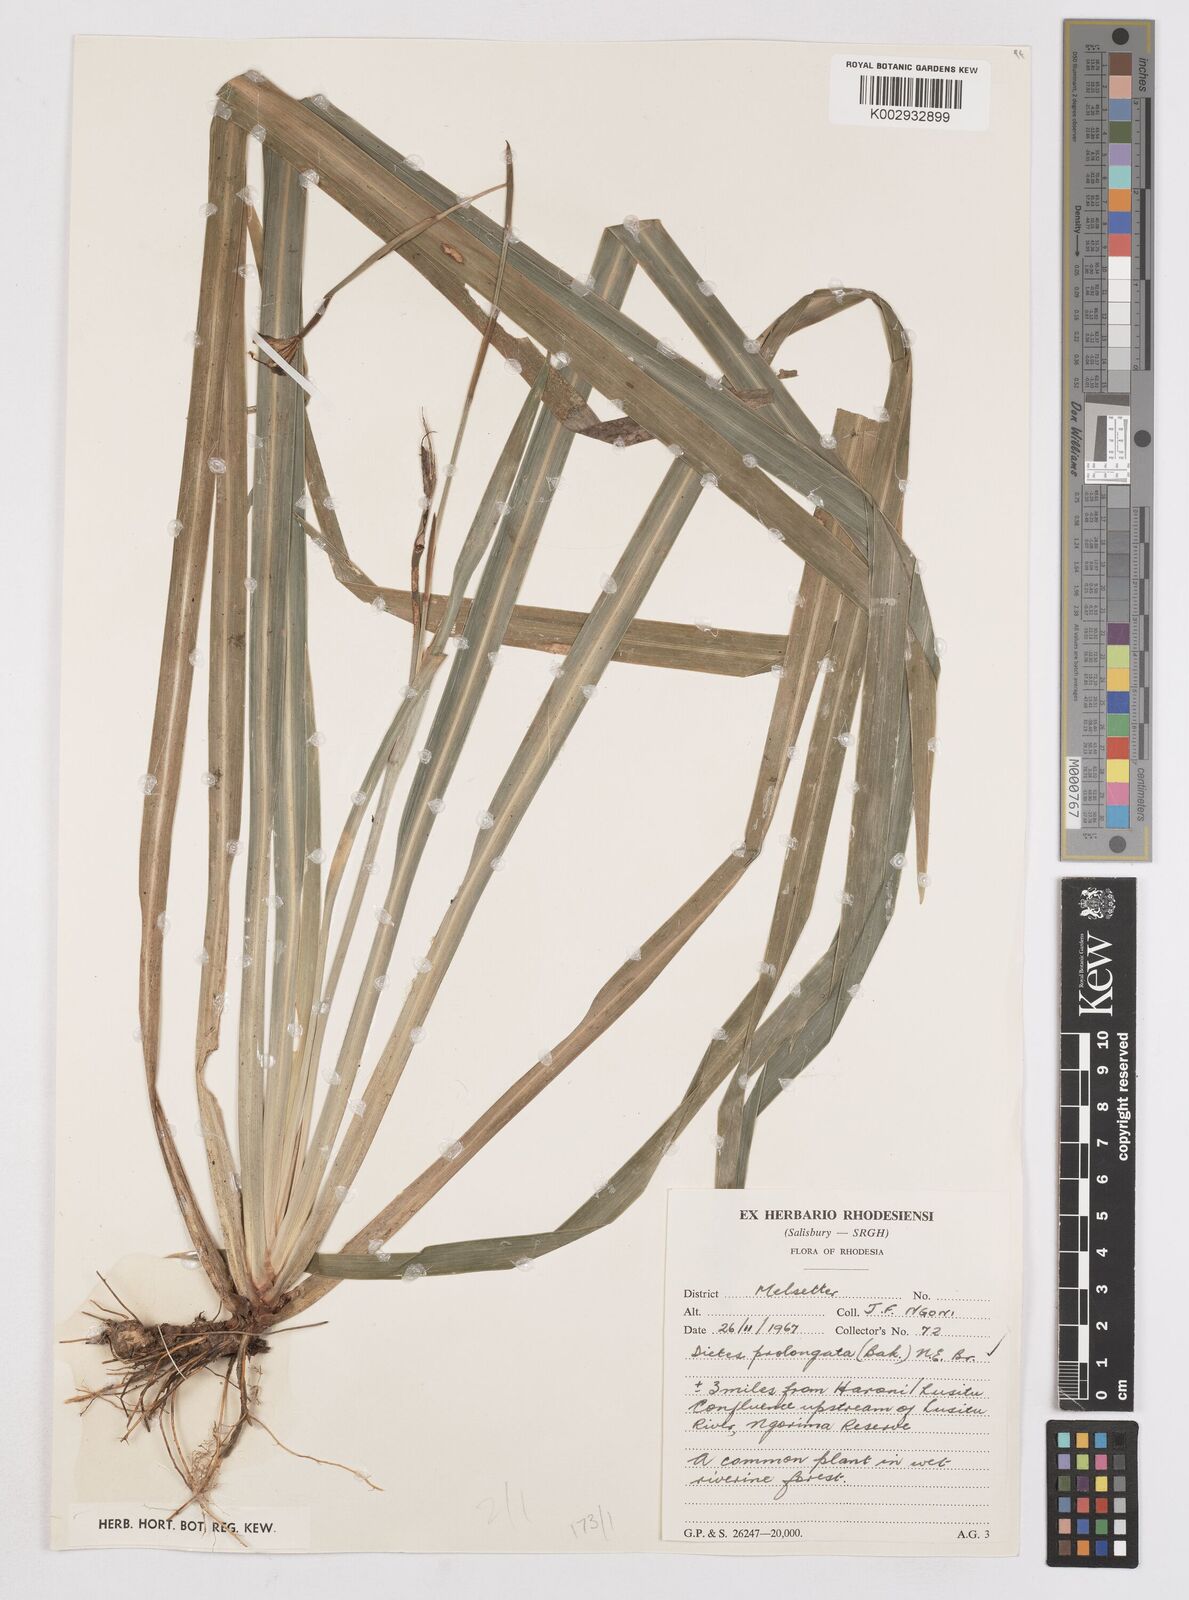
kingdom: Plantae
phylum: Tracheophyta
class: Liliopsida
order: Asparagales
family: Iridaceae
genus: Dietes
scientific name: Dietes iridioides
